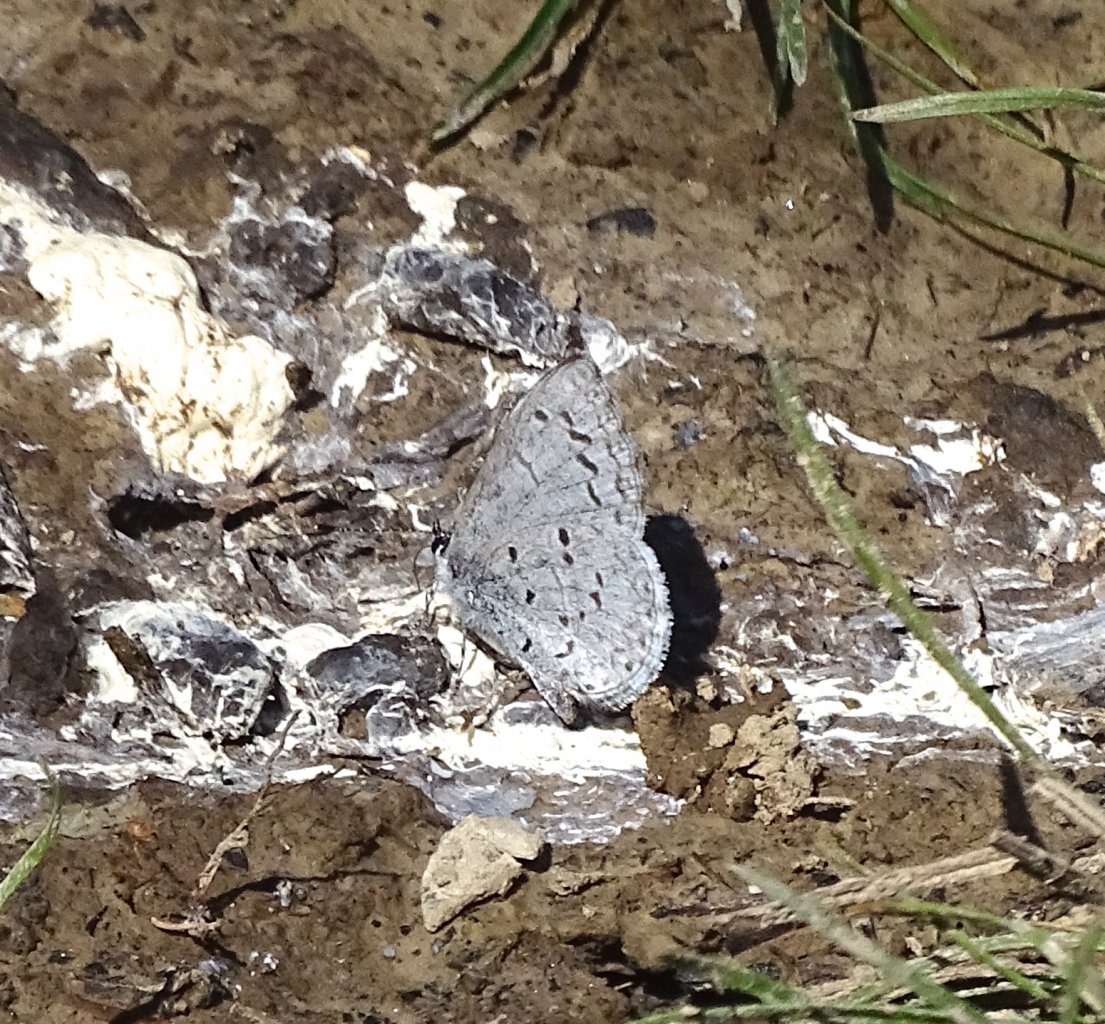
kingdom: Animalia
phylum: Arthropoda
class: Insecta
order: Lepidoptera
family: Lycaenidae
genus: Celastrina
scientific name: Celastrina ladon
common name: Spring Azure
